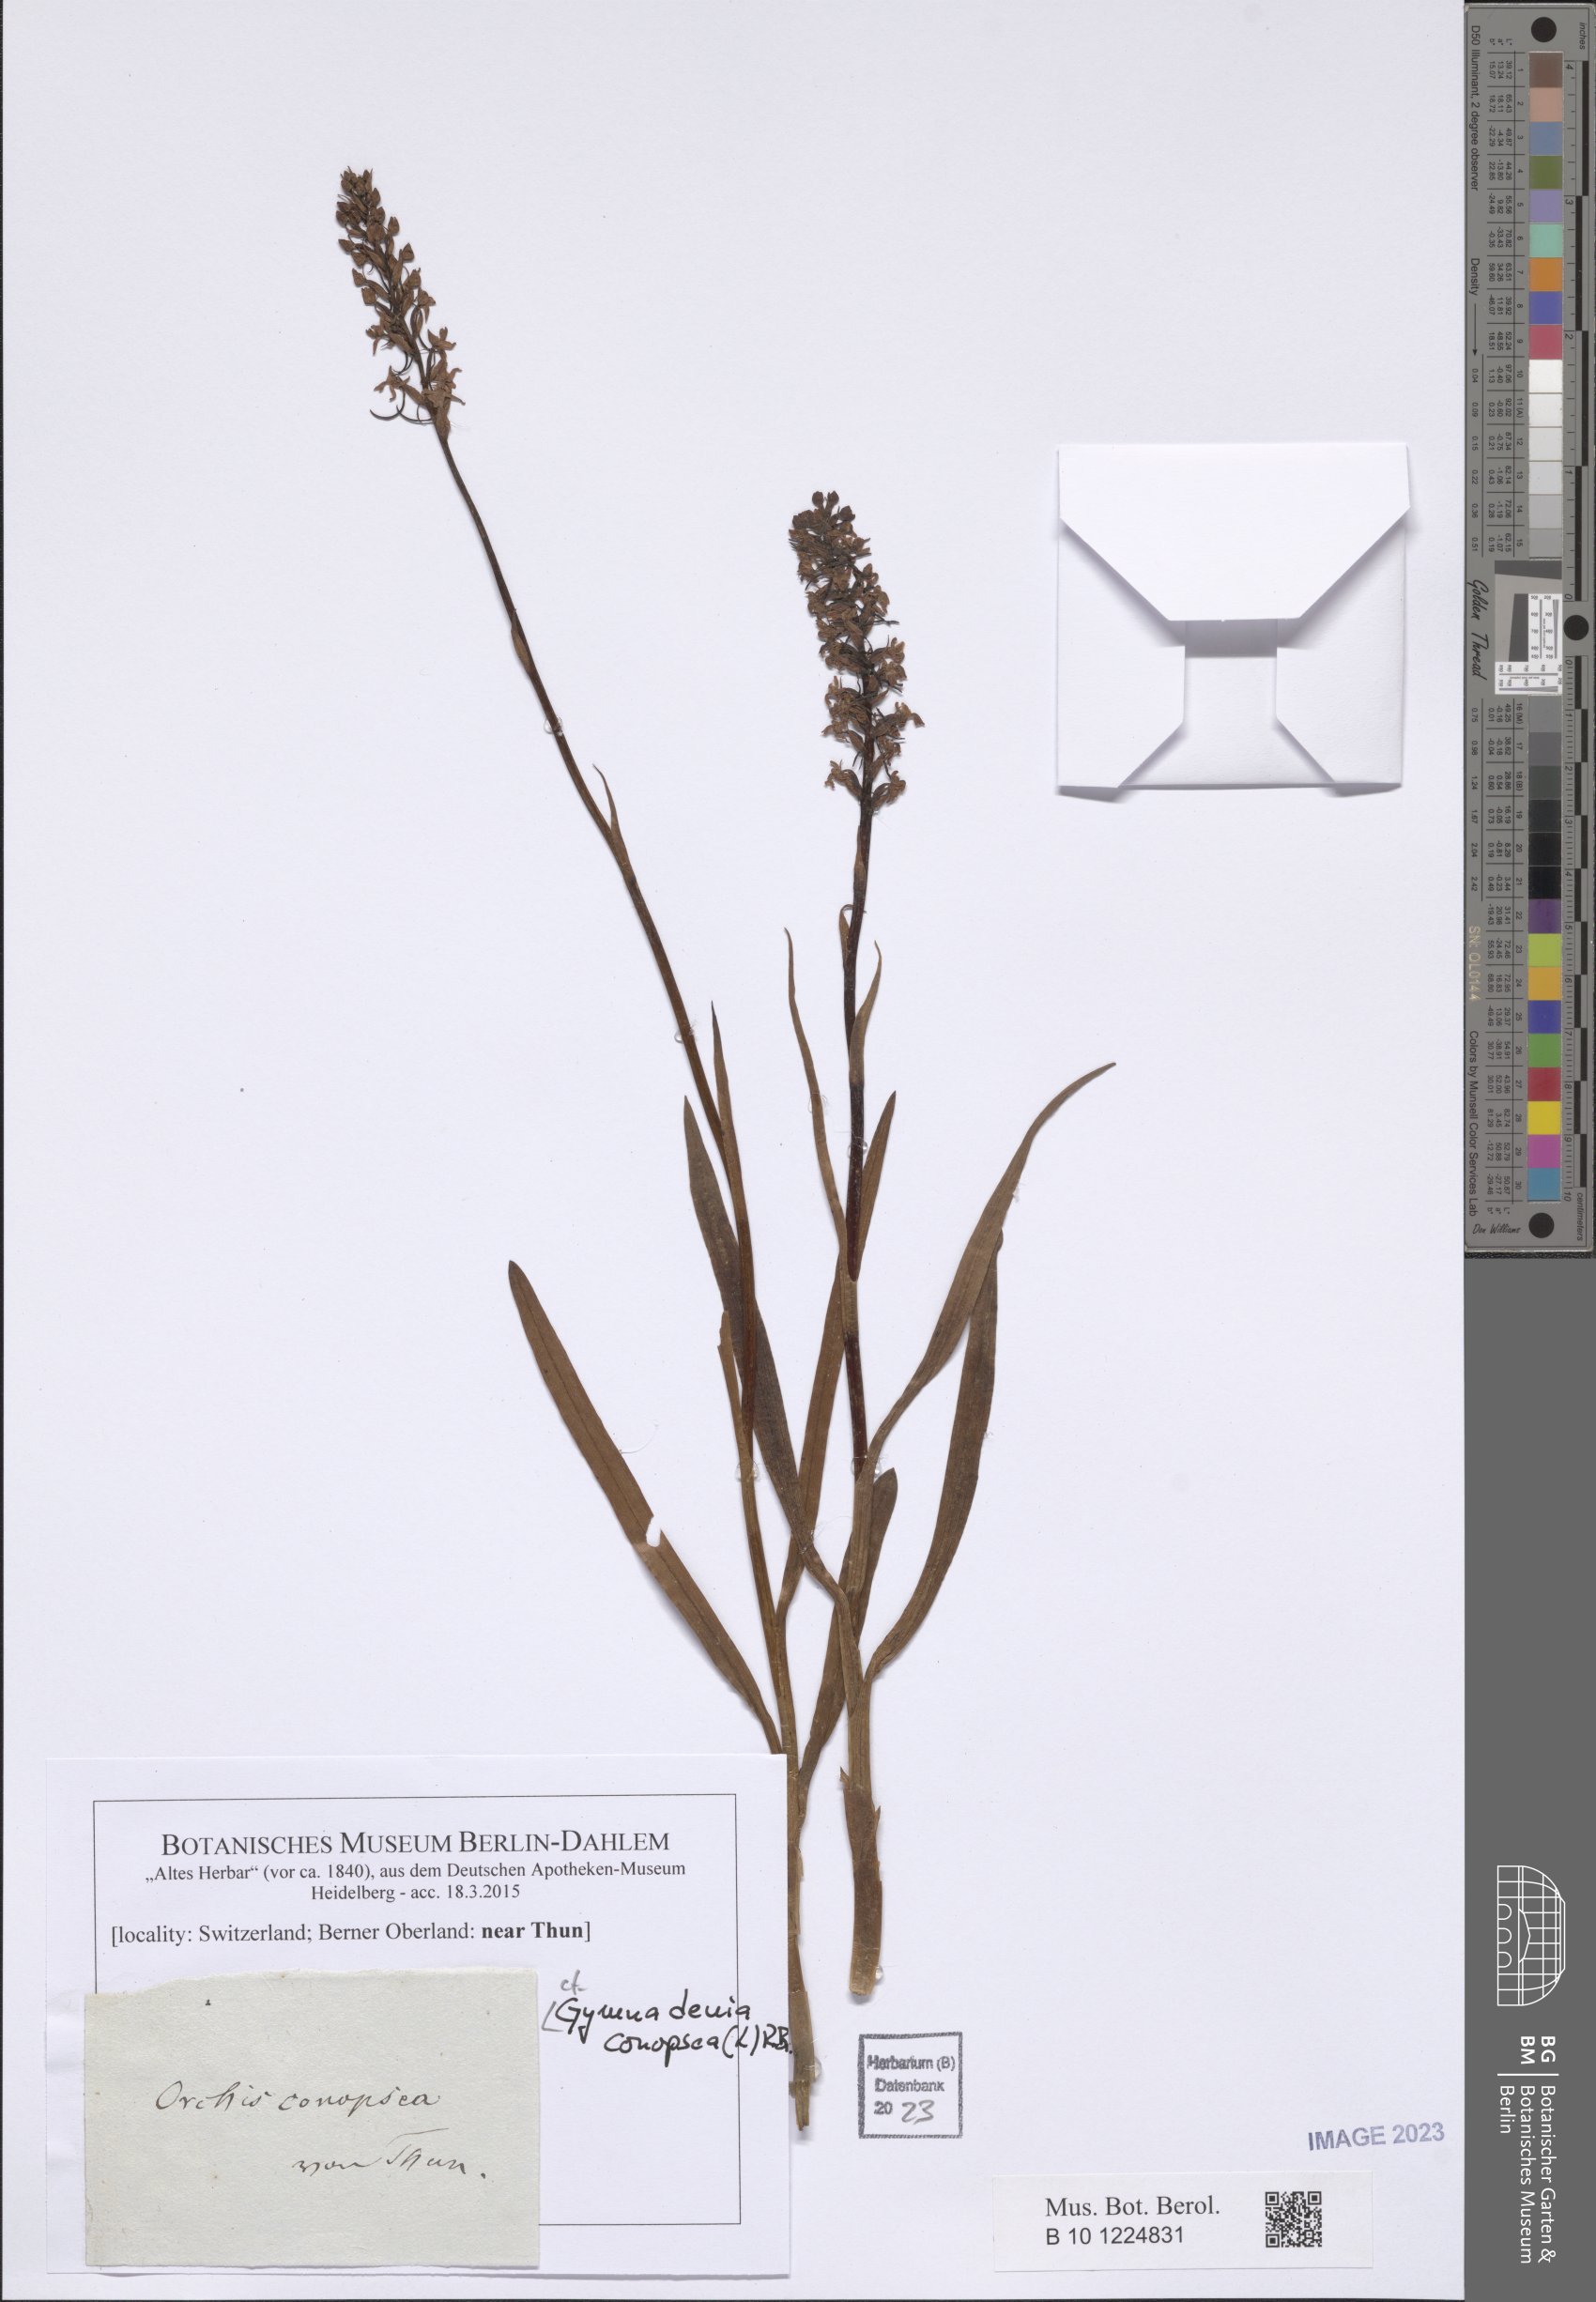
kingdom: Plantae
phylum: Tracheophyta
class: Liliopsida
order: Asparagales
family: Orchidaceae
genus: Gymnadenia
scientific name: Gymnadenia conopsea
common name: Fragrant orchid
